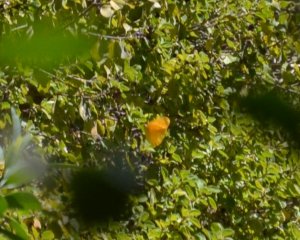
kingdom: Animalia
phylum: Arthropoda
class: Insecta
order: Lepidoptera
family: Pieridae
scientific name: Pieridae
